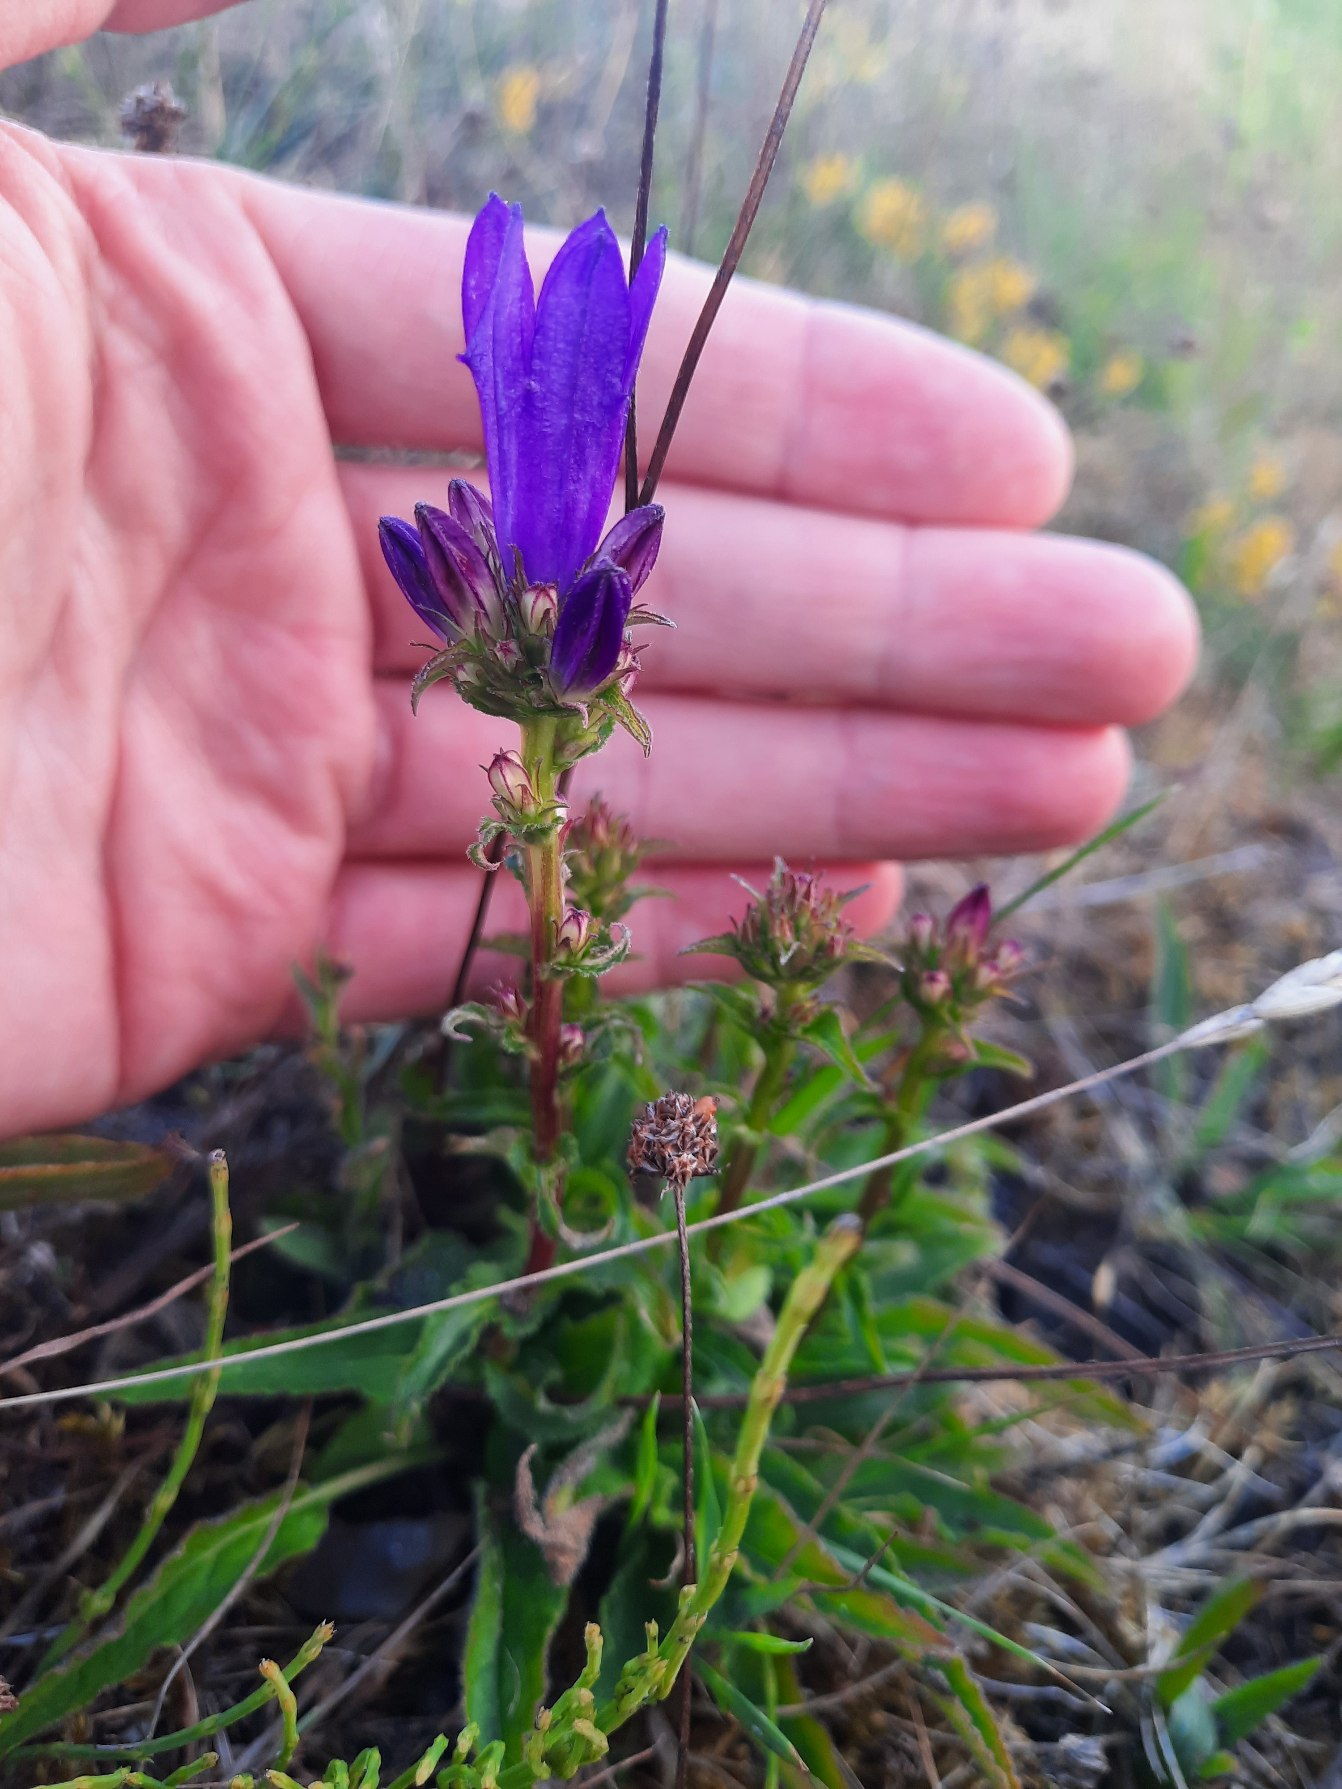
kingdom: Plantae
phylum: Tracheophyta
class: Magnoliopsida
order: Asterales
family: Campanulaceae
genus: Campanula
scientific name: Campanula glomerata
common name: Nøgleblomstret klokke
